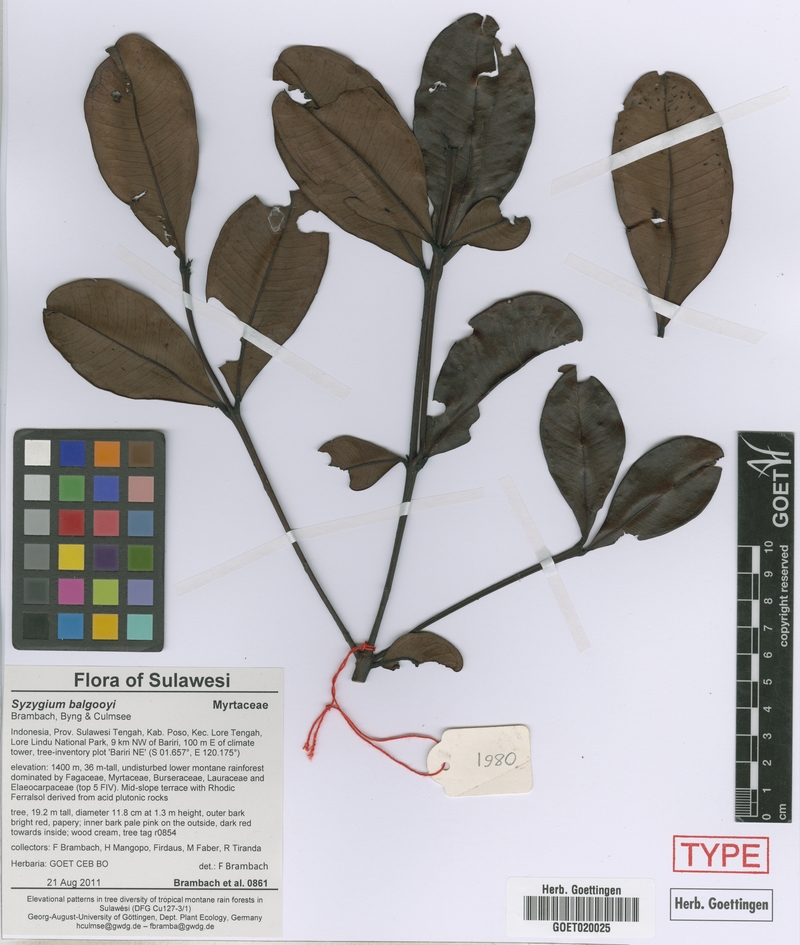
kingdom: Plantae
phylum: Tracheophyta
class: Magnoliopsida
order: Myrtales
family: Myrtaceae
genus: Syzygium
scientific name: Syzygium balgooyi
